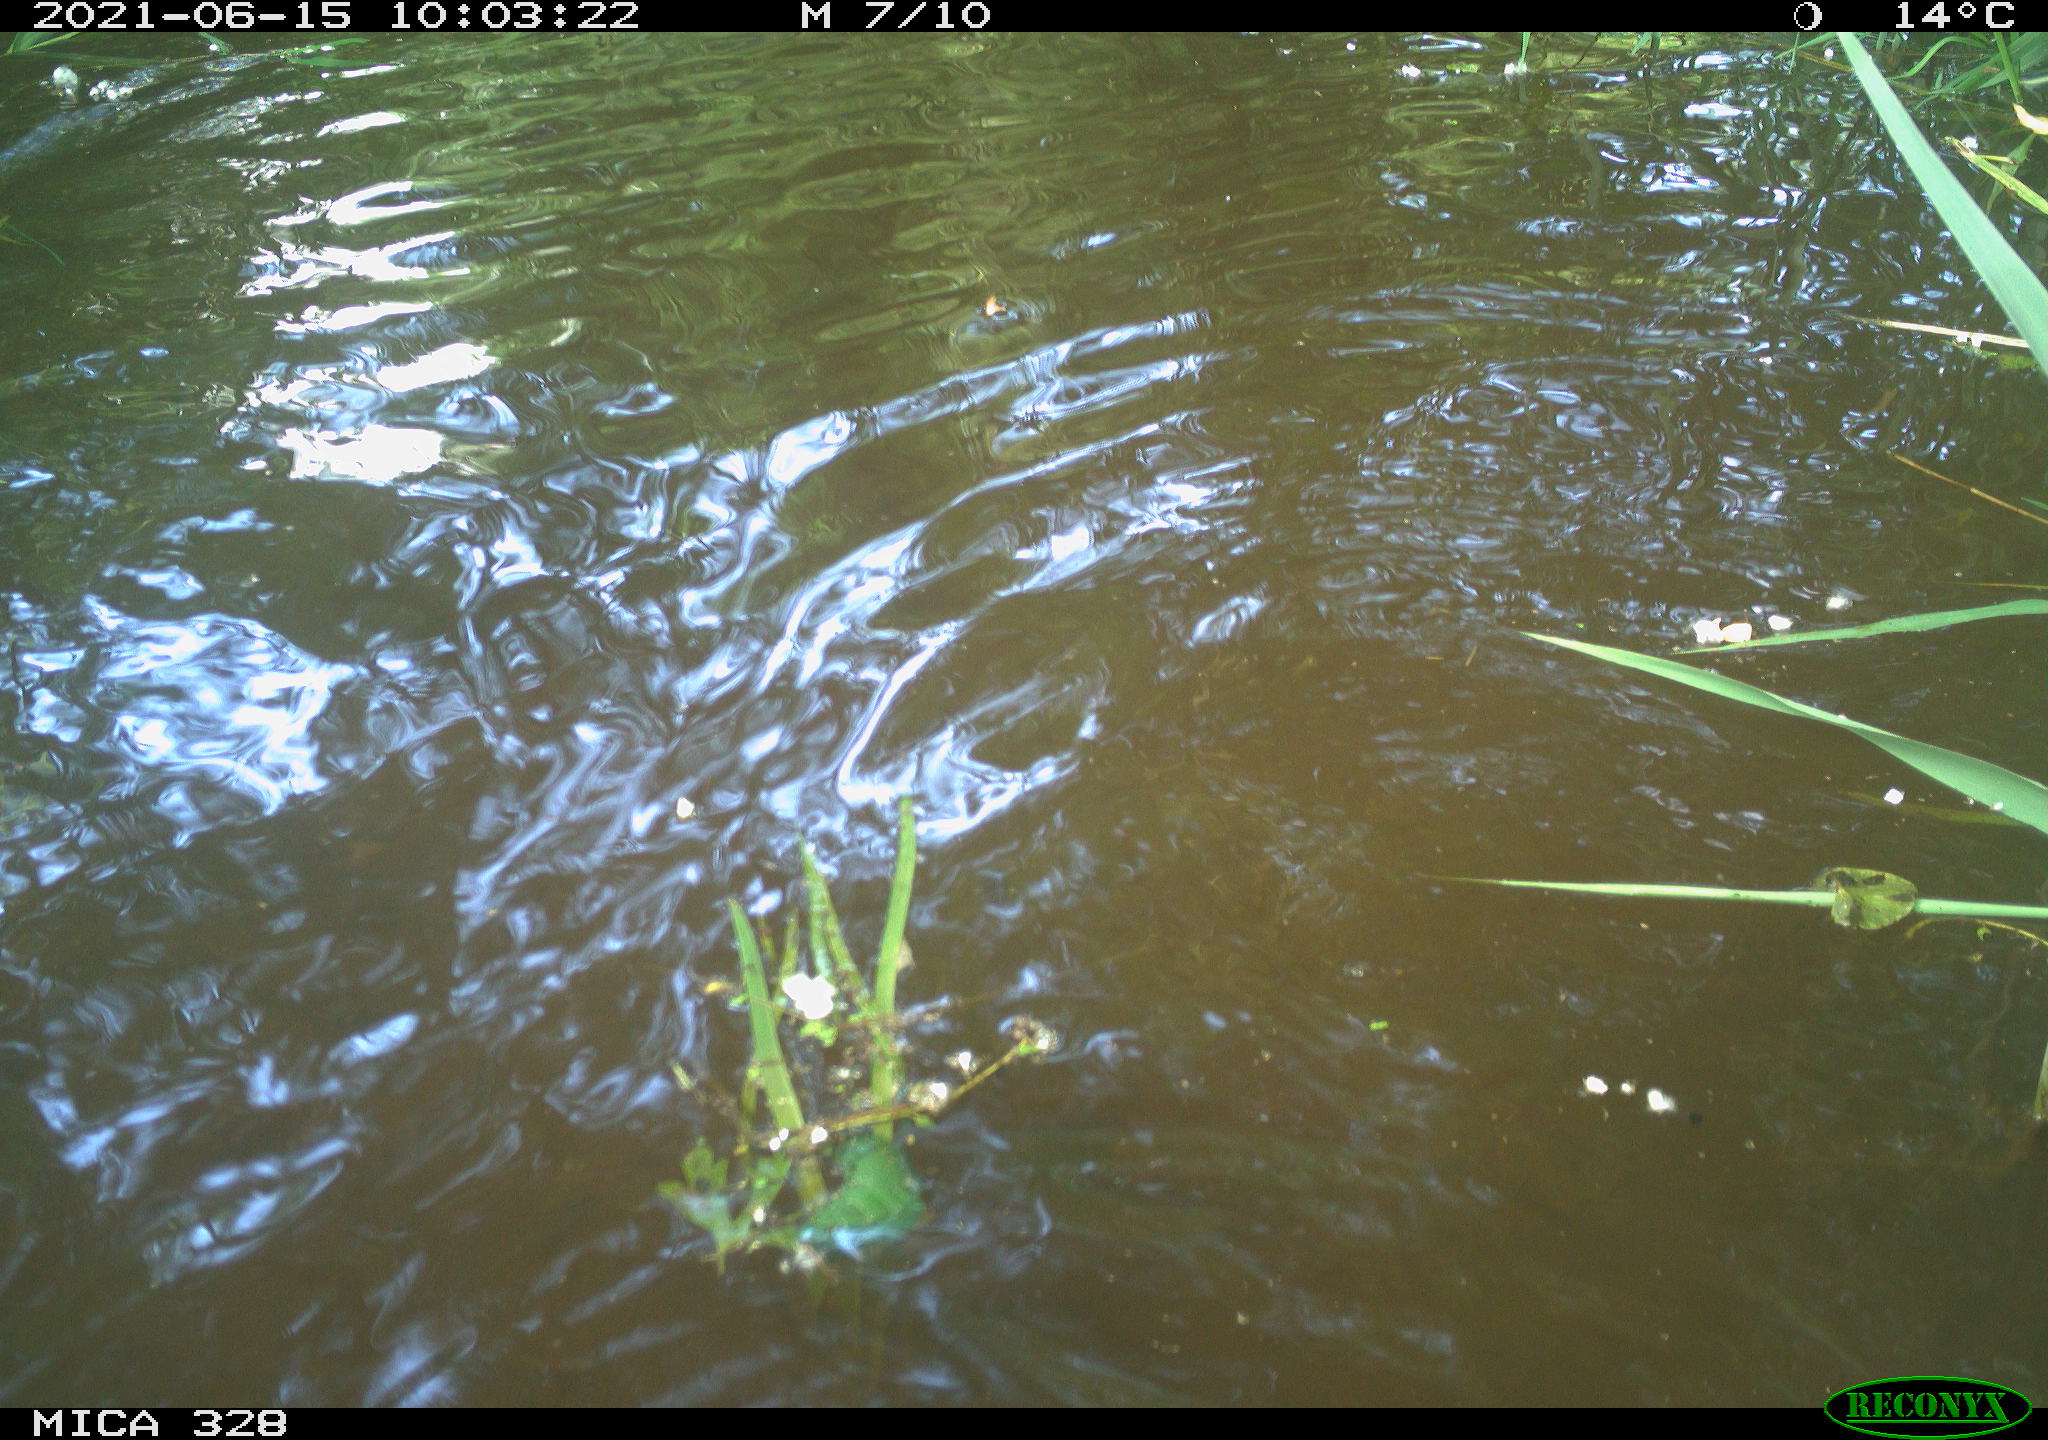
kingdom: Animalia
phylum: Chordata
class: Aves
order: Anseriformes
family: Anatidae
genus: Aix
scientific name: Aix galericulata
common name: Mandarin duck
